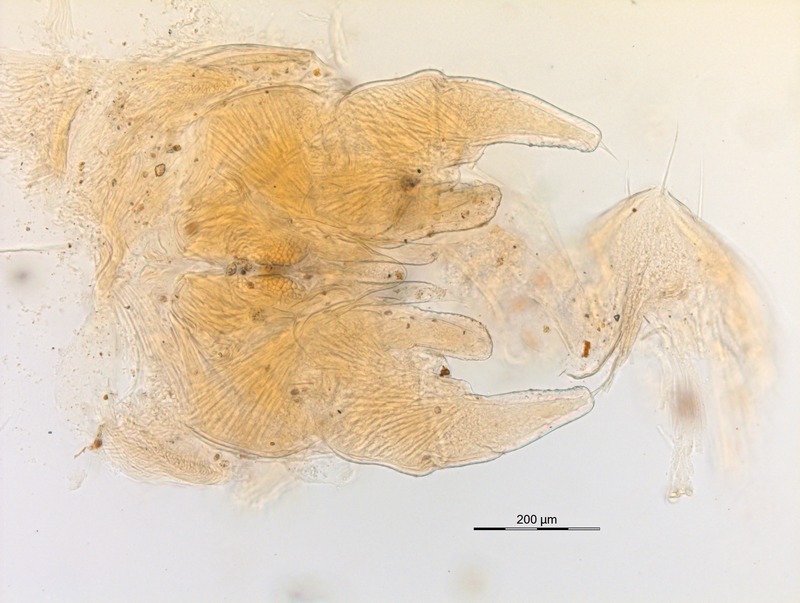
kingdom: Animalia
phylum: Arthropoda
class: Diplopoda
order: Glomerida
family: Protoglomeridae
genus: Glomerellina
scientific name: Glomerellina convolvens
